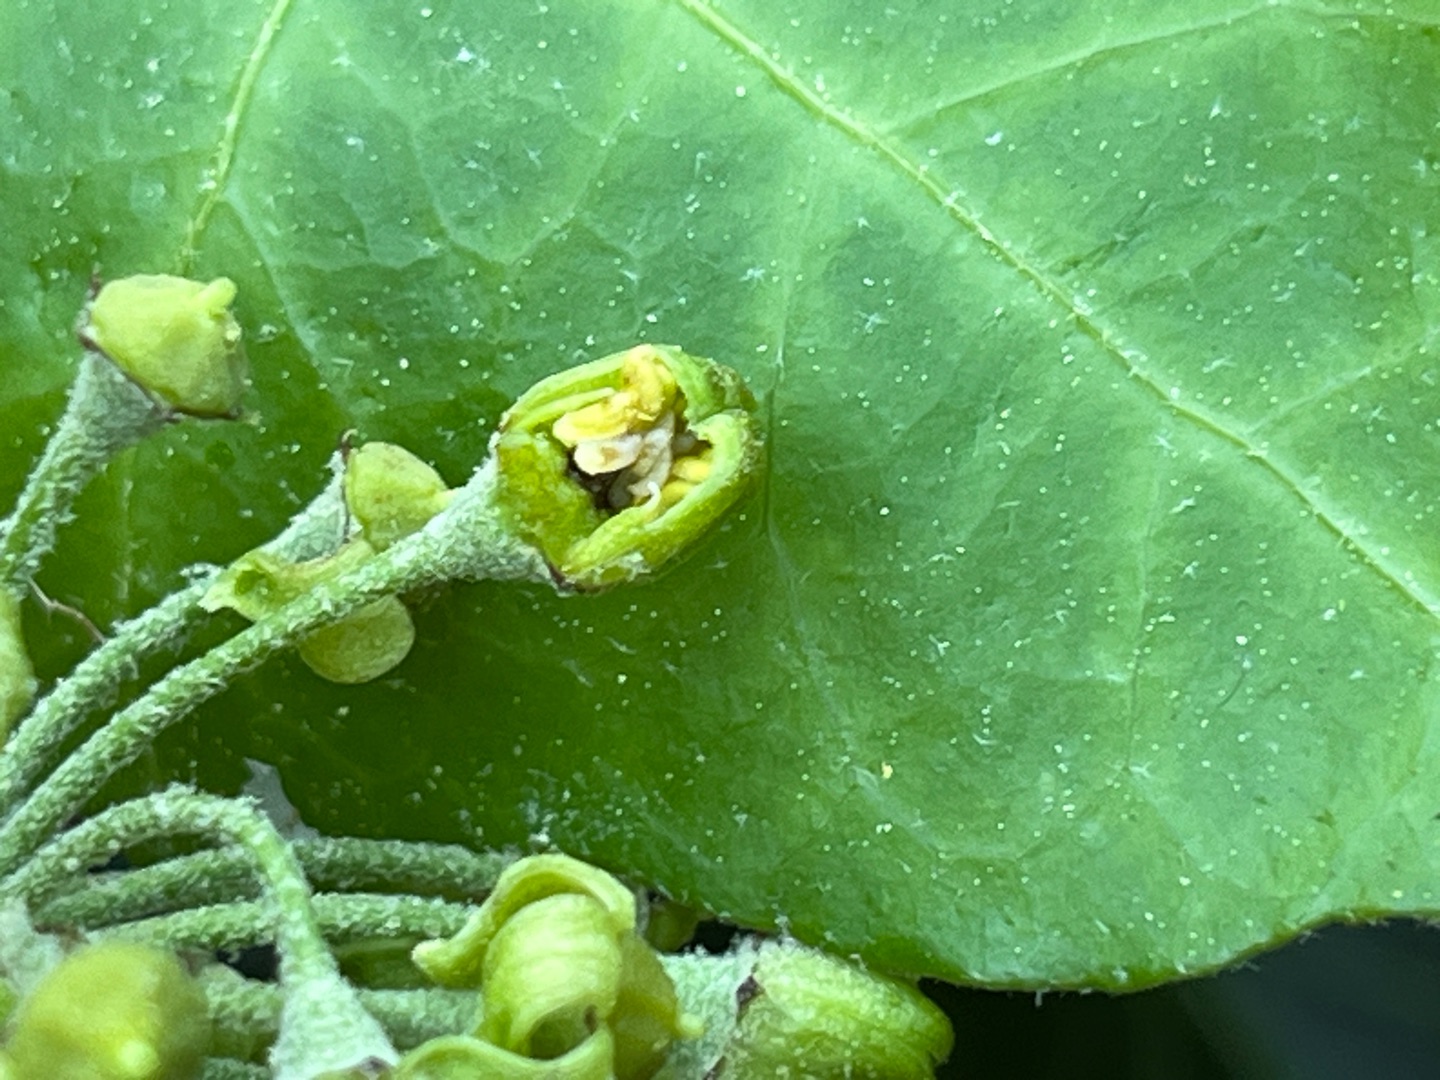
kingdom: Animalia
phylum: Arthropoda
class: Insecta
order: Diptera
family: Cecidomyiidae
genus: Dasineura
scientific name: Dasineura kiefferi
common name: Vedbendgalmyg
